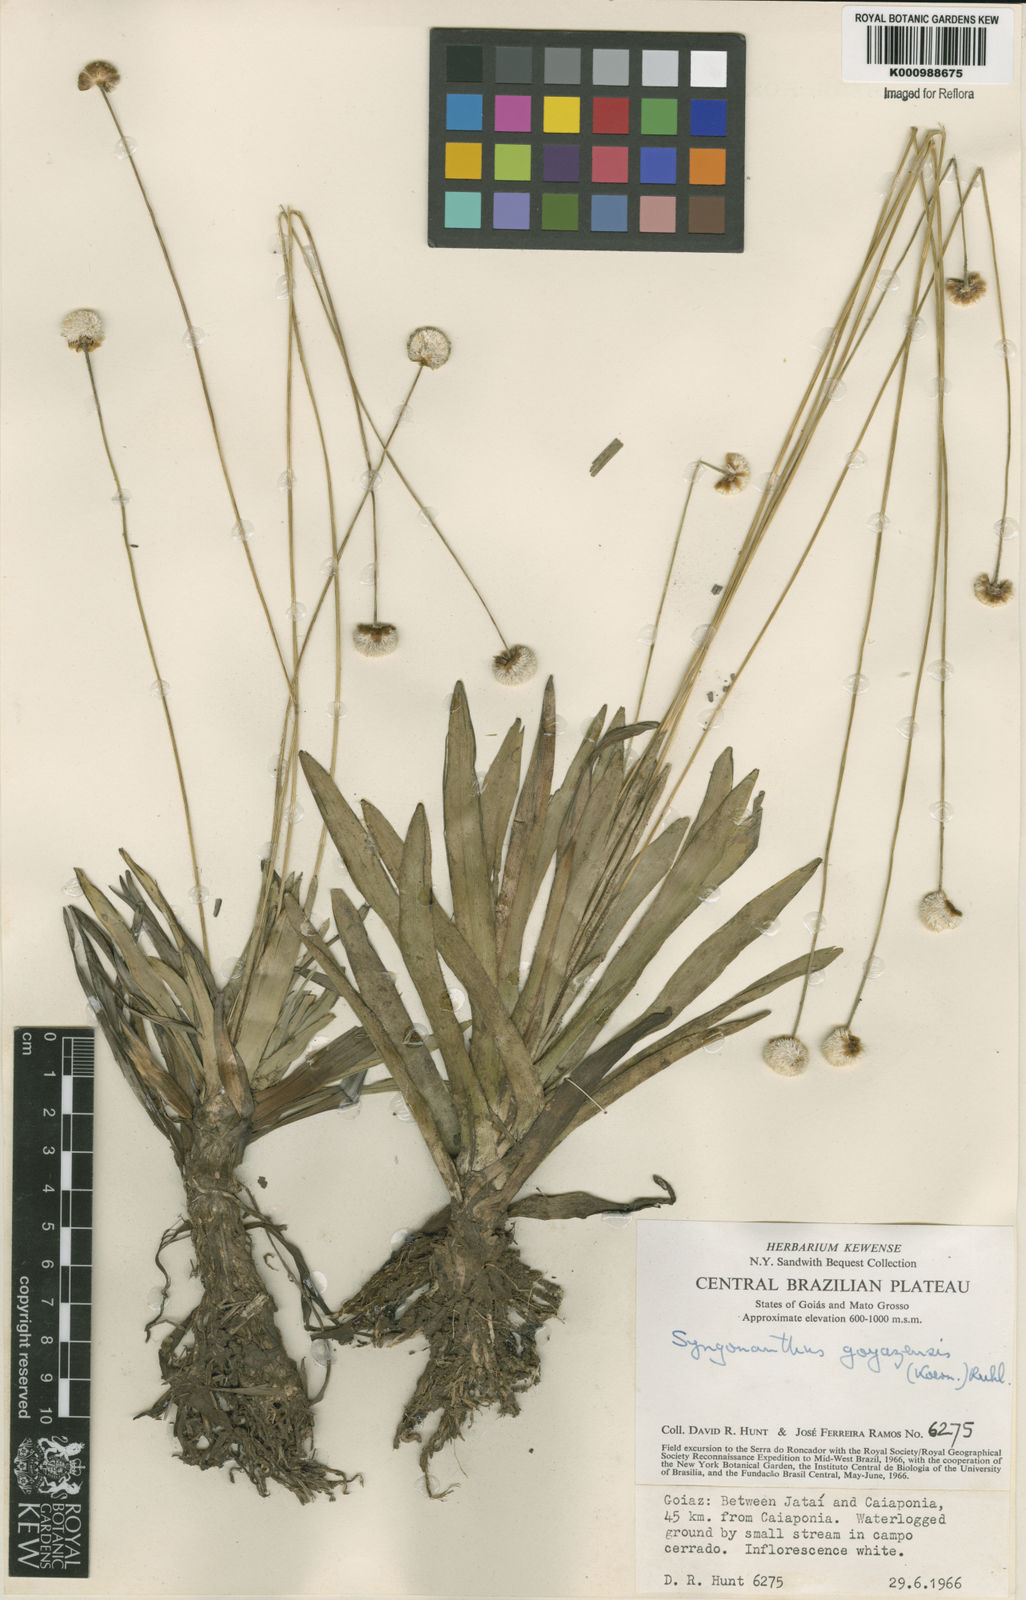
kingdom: Plantae
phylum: Tracheophyta
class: Liliopsida
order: Poales
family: Eriocaulaceae
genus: Syngonanthus
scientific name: Syngonanthus
